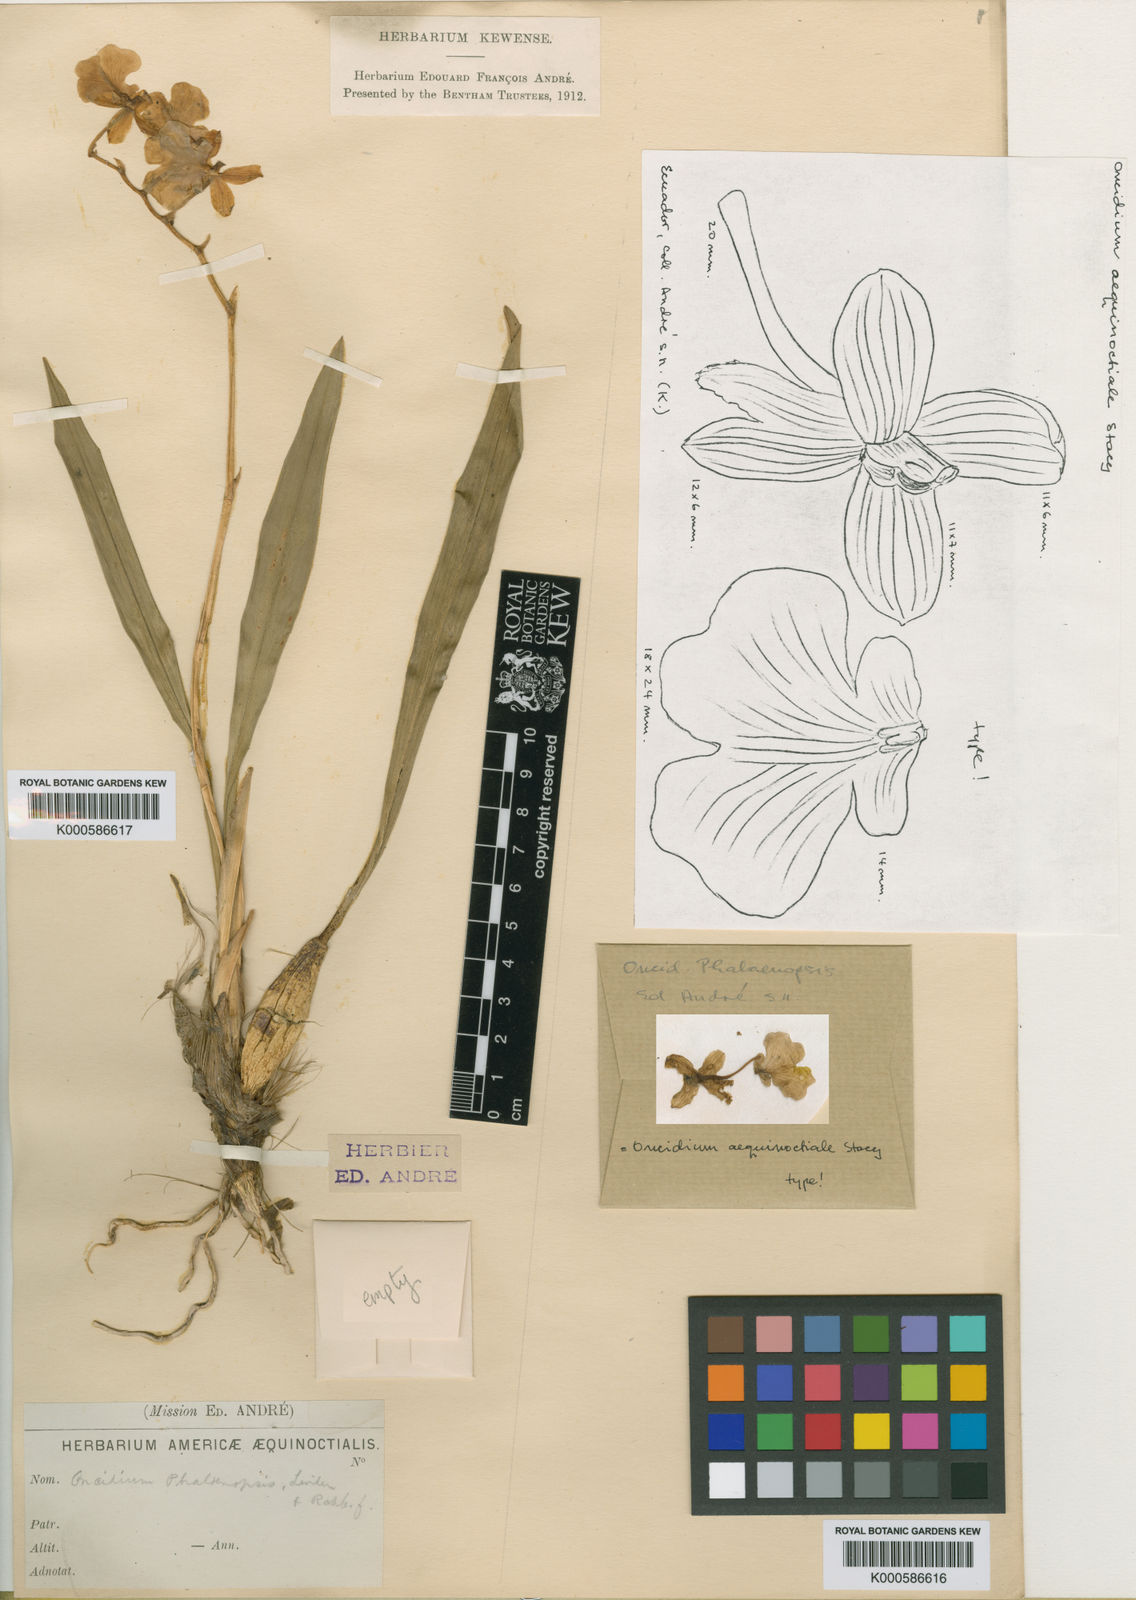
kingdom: Plantae
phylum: Tracheophyta
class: Liliopsida
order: Asparagales
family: Orchidaceae
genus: Caucaea
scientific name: Caucaea nubigena
